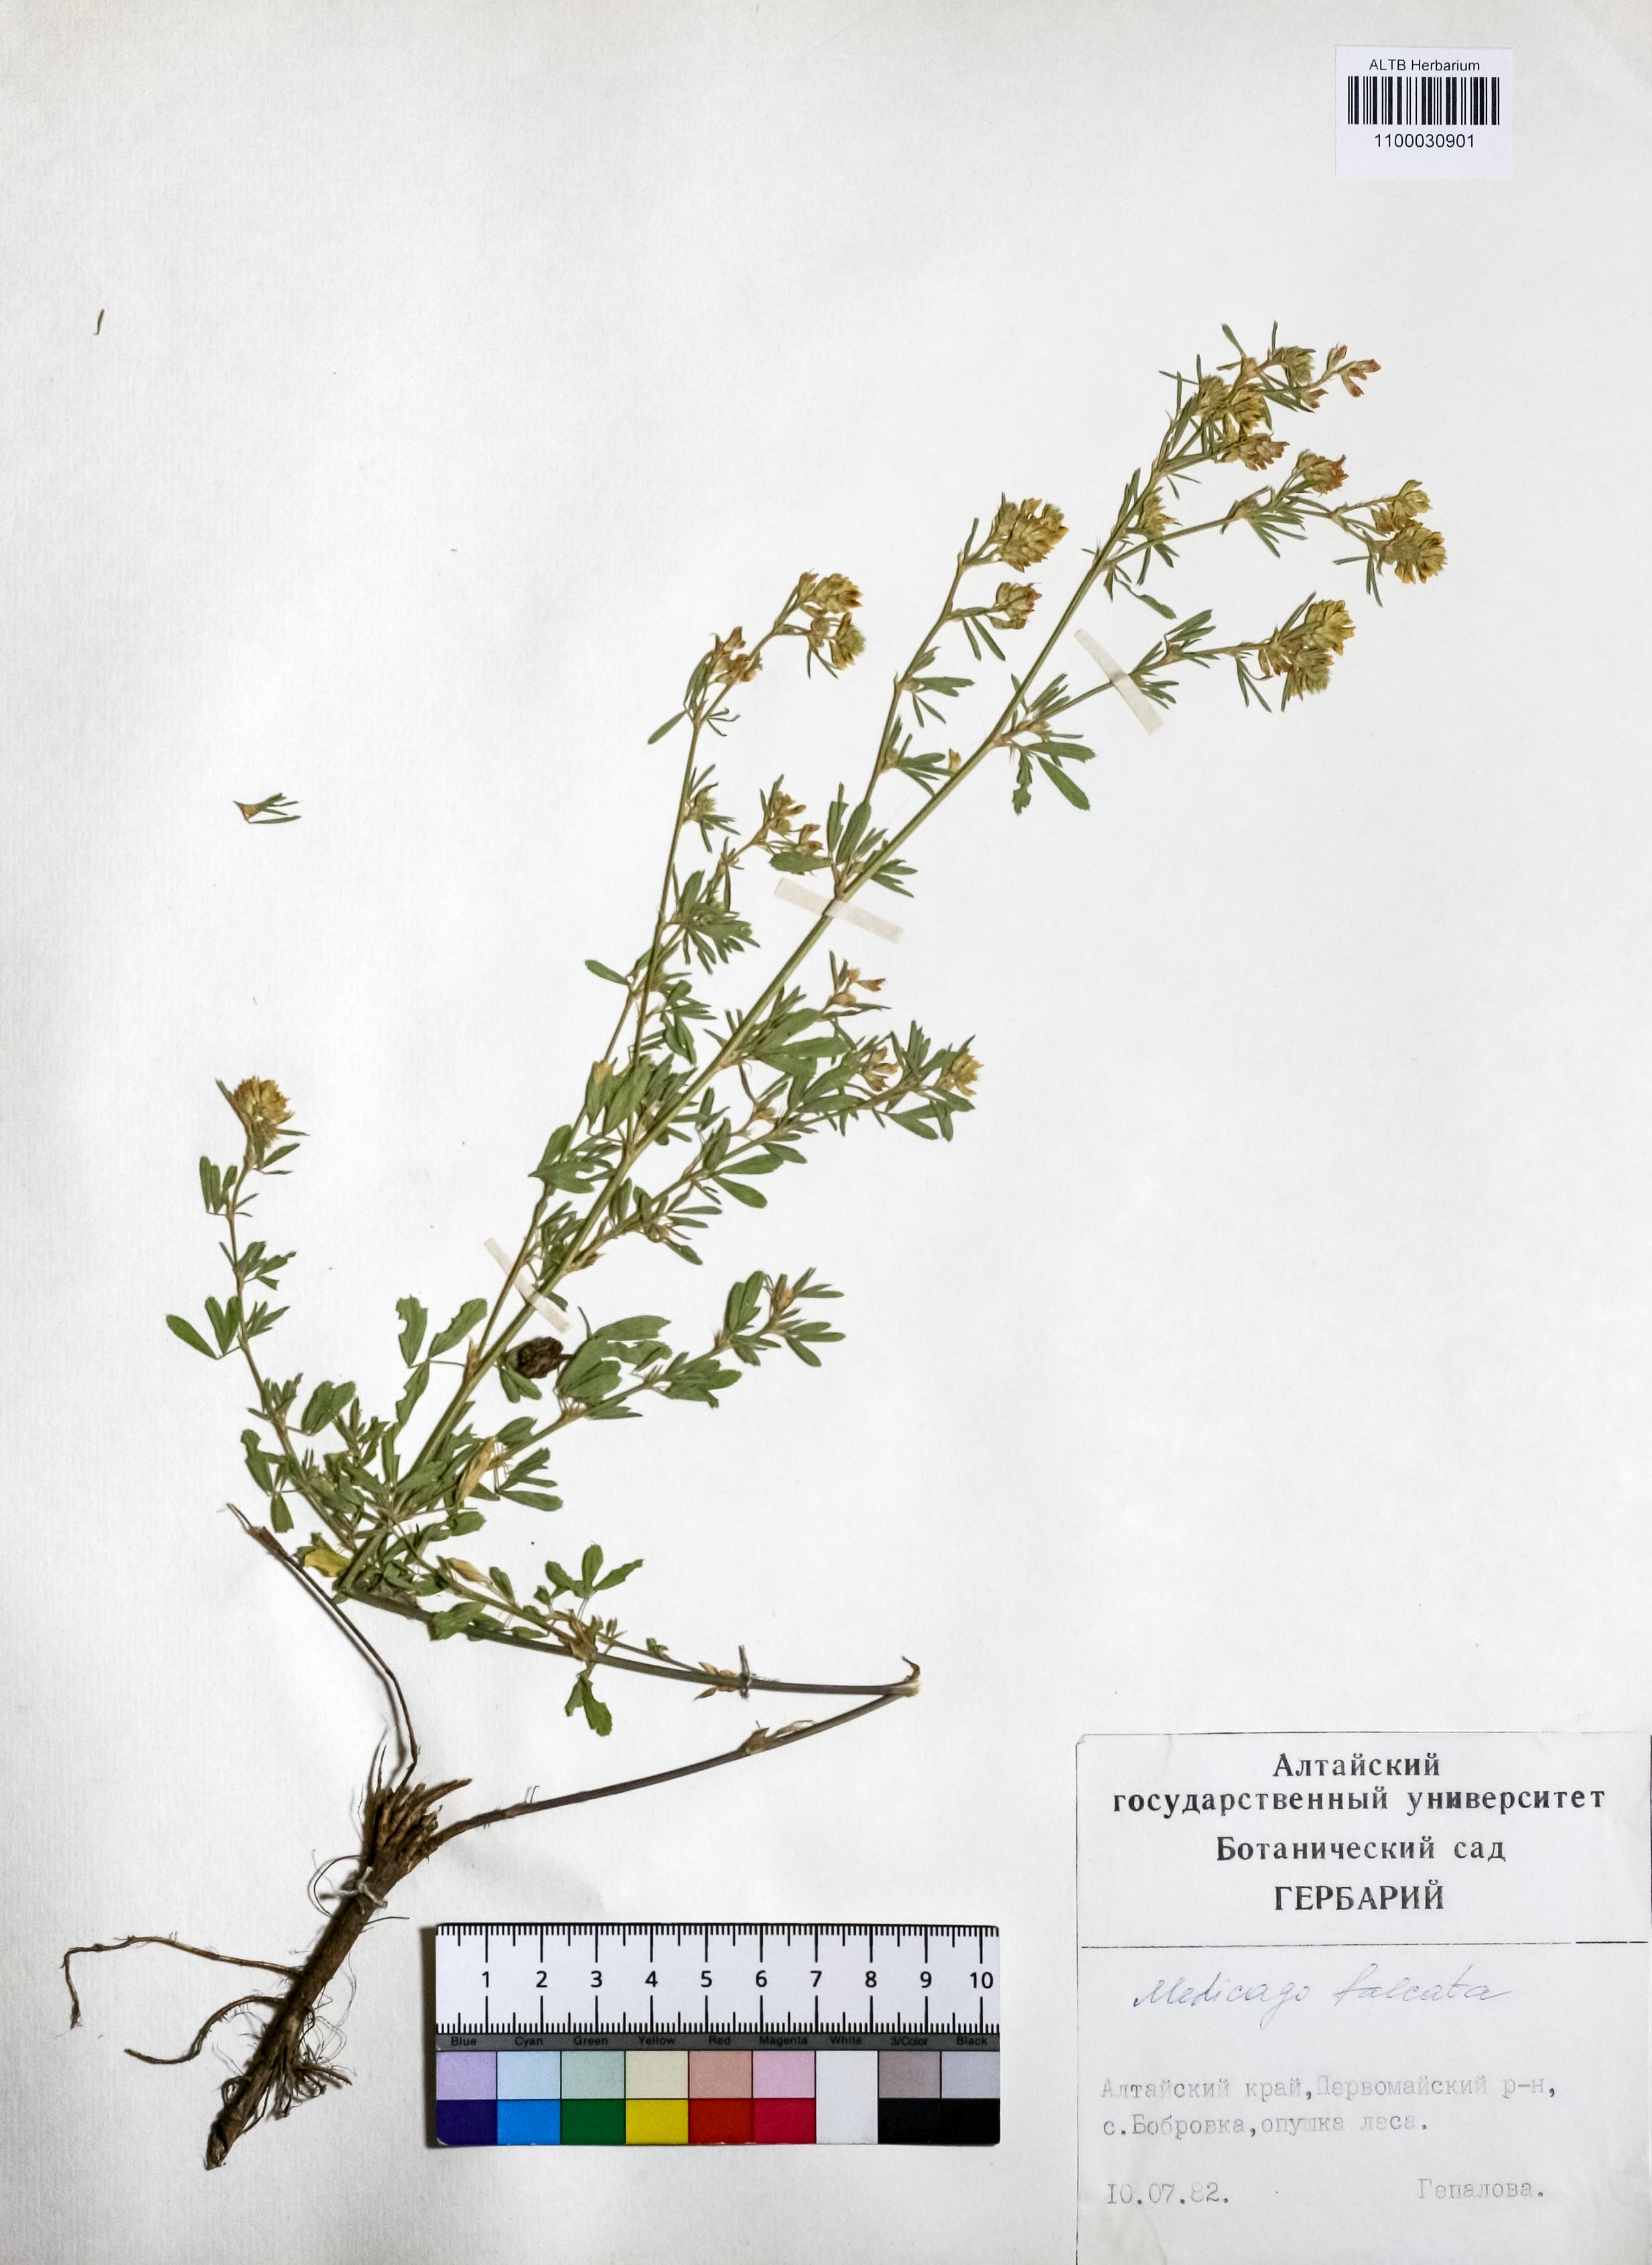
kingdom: Plantae
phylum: Tracheophyta
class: Magnoliopsida
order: Fabales
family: Fabaceae
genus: Medicago
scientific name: Medicago falcata
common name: Sickle medick
